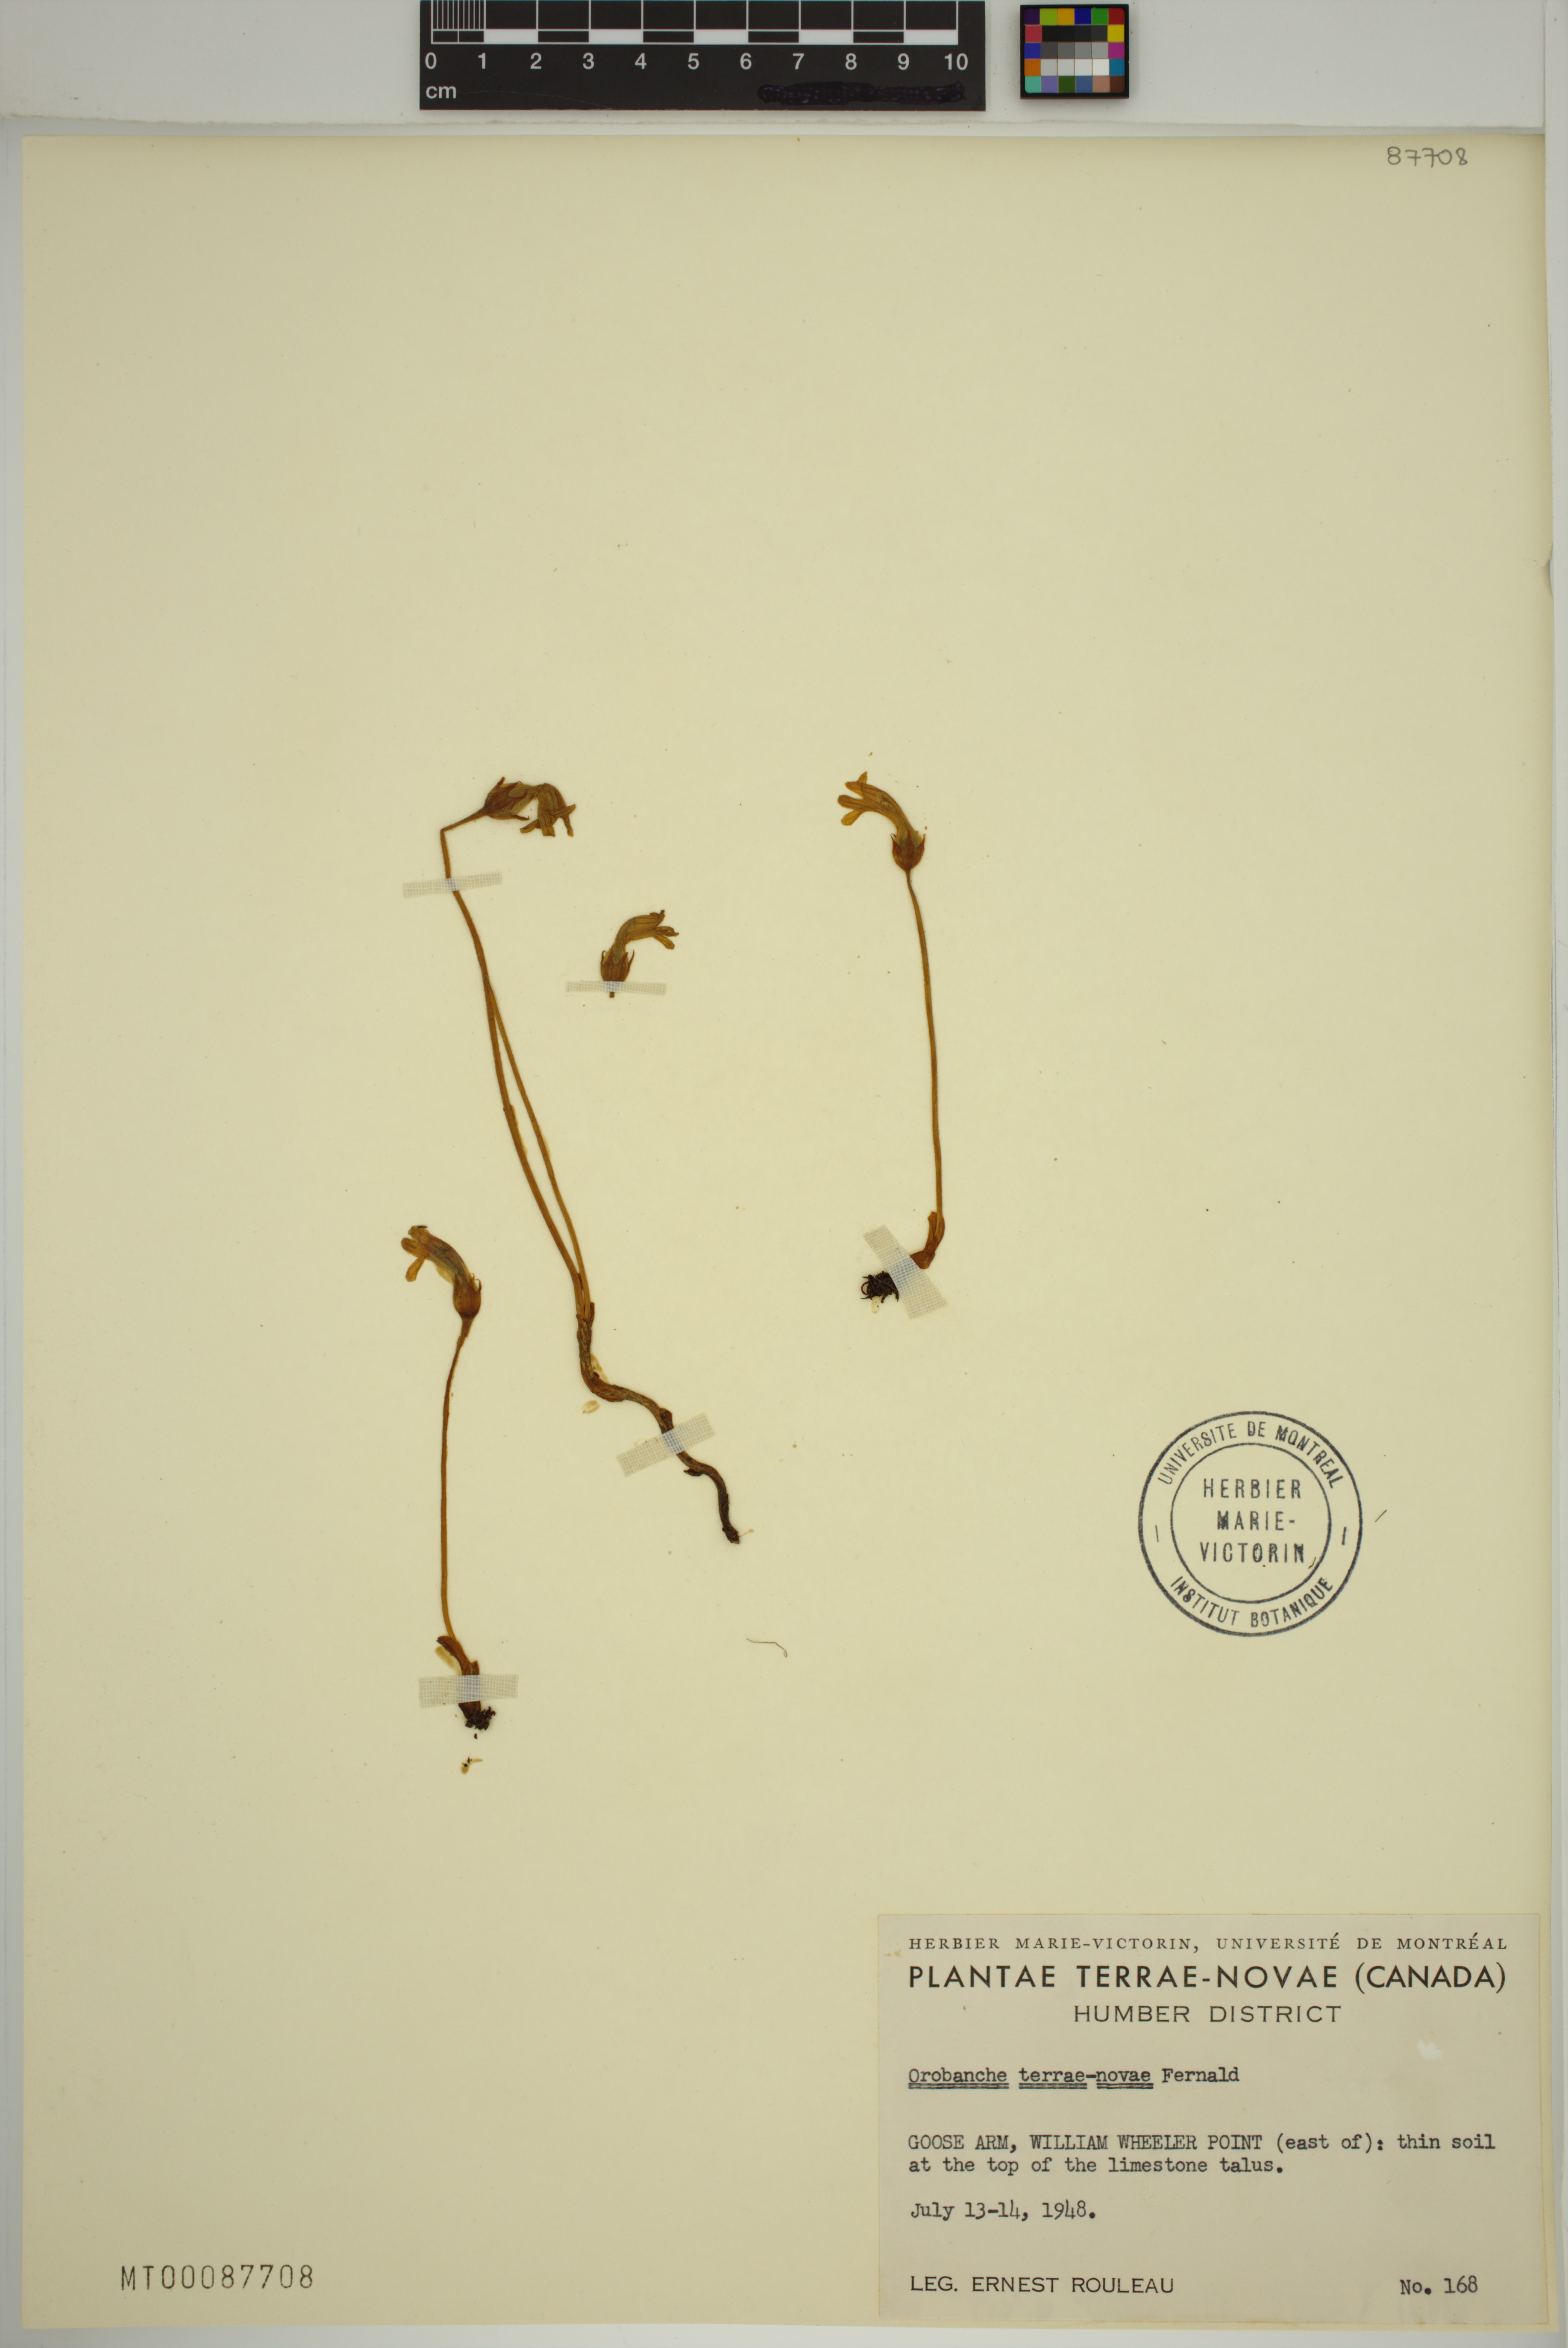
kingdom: Plantae
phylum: Tracheophyta
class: Magnoliopsida
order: Lamiales
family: Orobanchaceae
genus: Aphyllon
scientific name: Aphyllon uniflorum
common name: One-flowered broomrape
